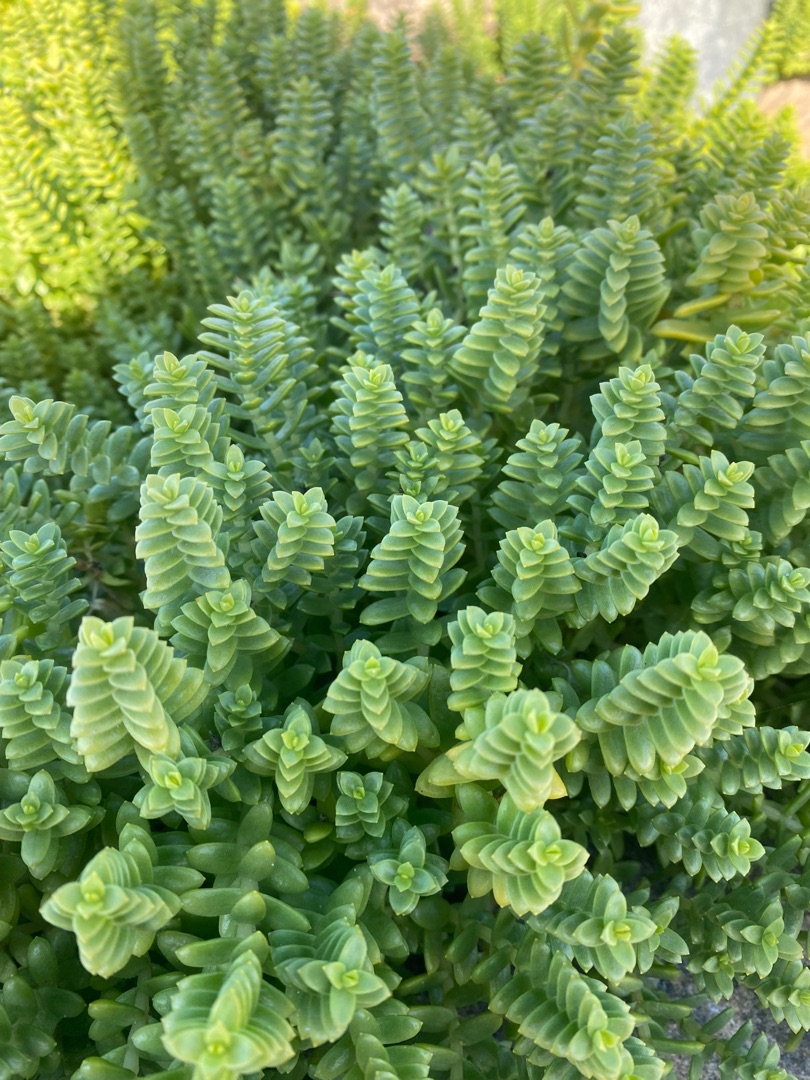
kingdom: Plantae
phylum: Tracheophyta
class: Magnoliopsida
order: Caryophyllales
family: Caryophyllaceae
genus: Honckenya
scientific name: Honckenya peploides
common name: Strandarve
